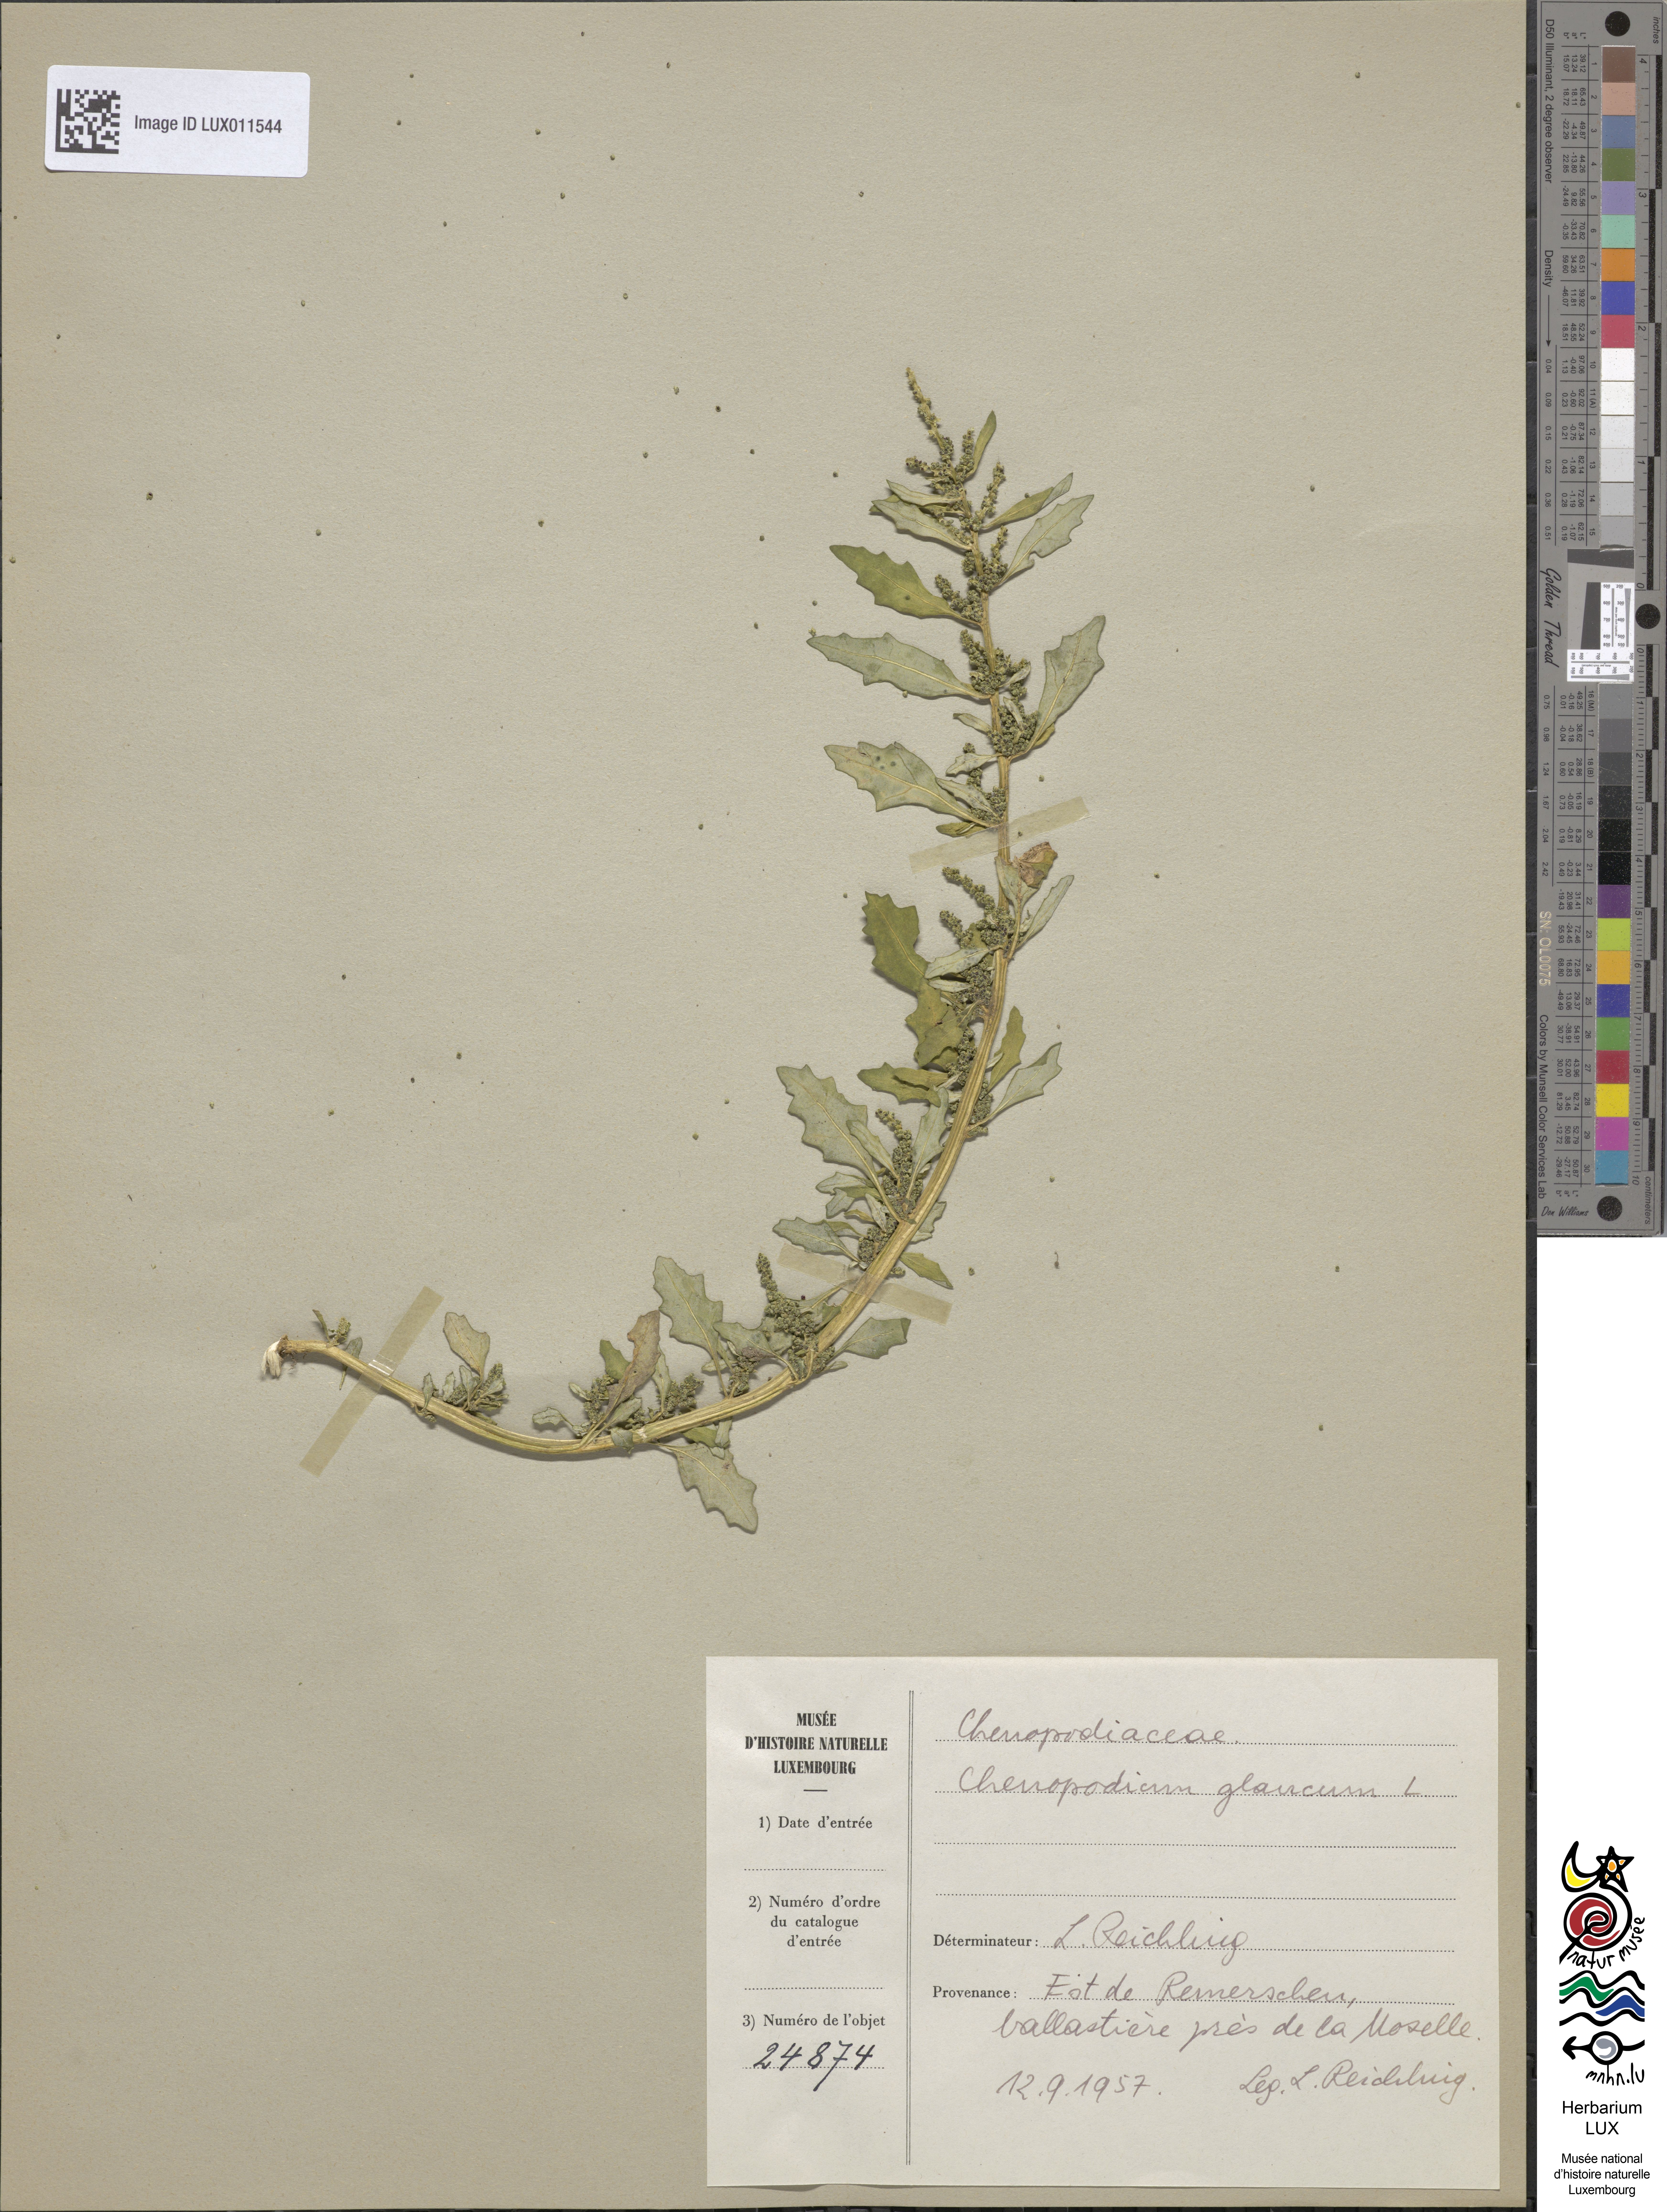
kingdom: Plantae
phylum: Tracheophyta
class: Magnoliopsida
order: Caryophyllales
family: Amaranthaceae
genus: Oxybasis
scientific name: Oxybasis glauca
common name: Glaucous goosefoot
